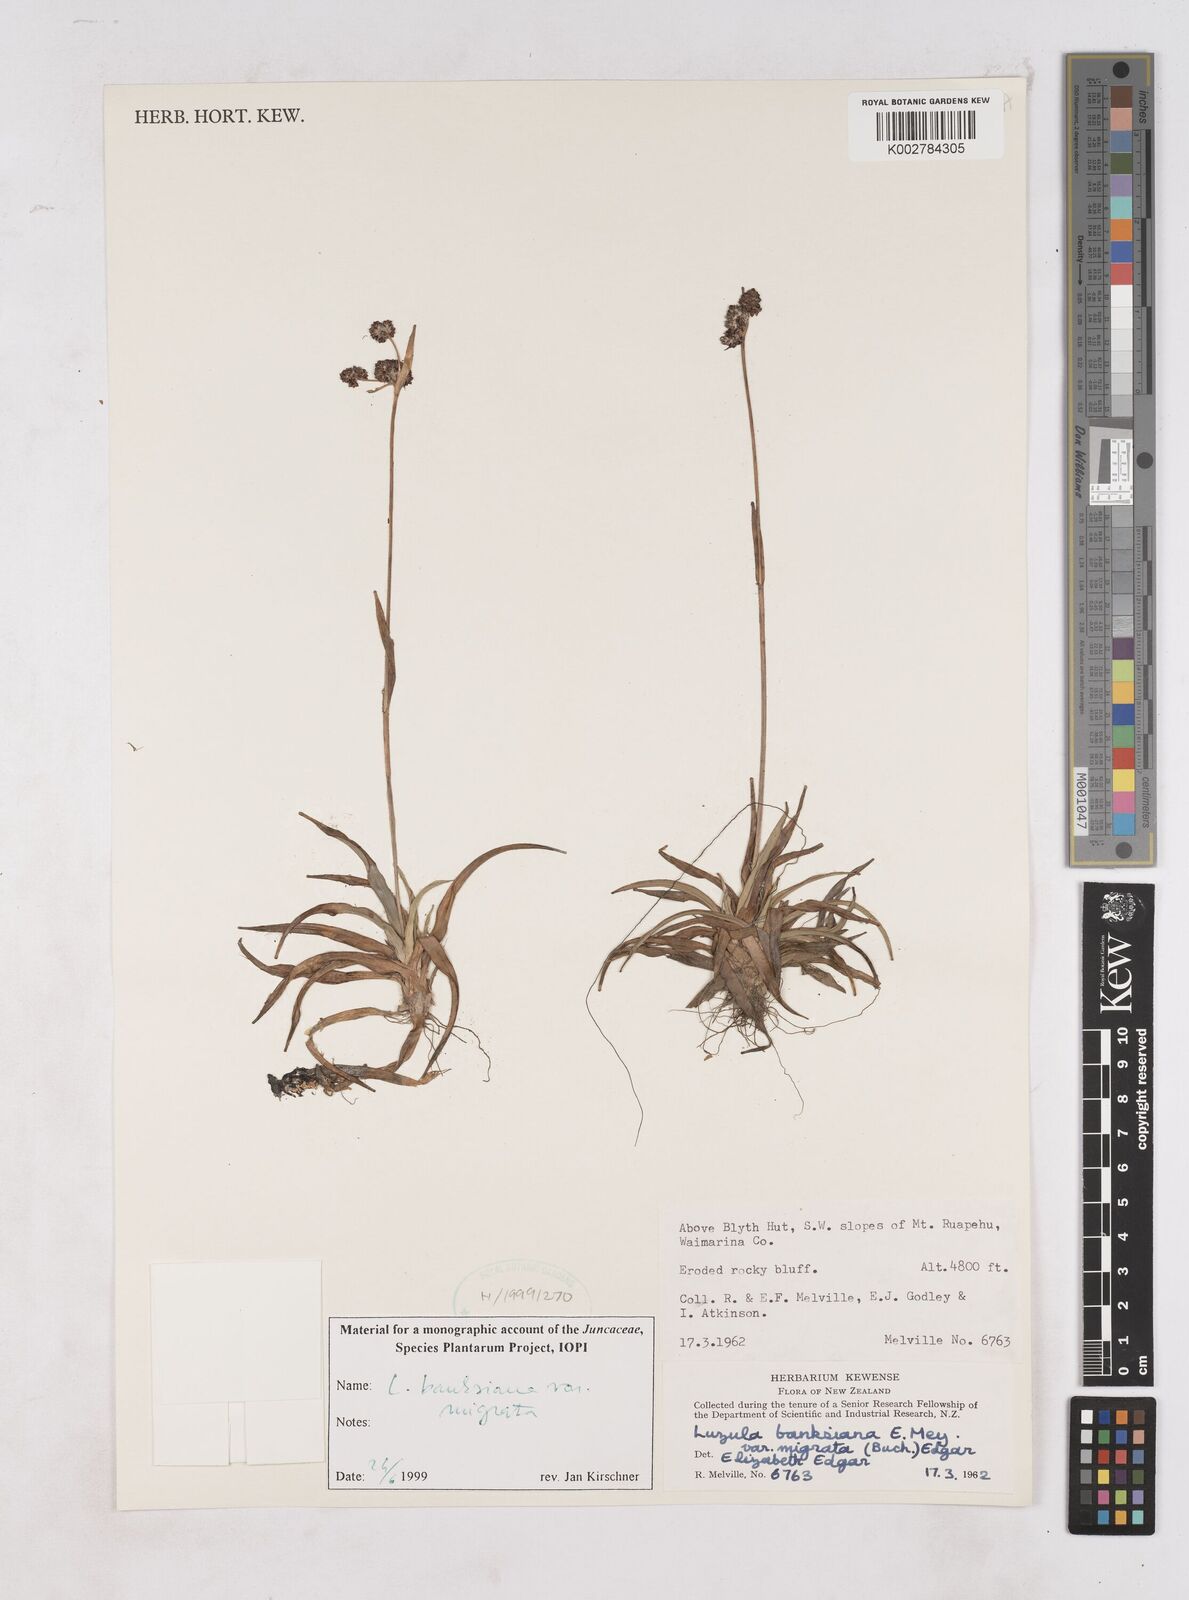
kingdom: Plantae
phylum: Tracheophyta
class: Liliopsida
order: Poales
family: Juncaceae
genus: Luzula
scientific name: Luzula banksiana
